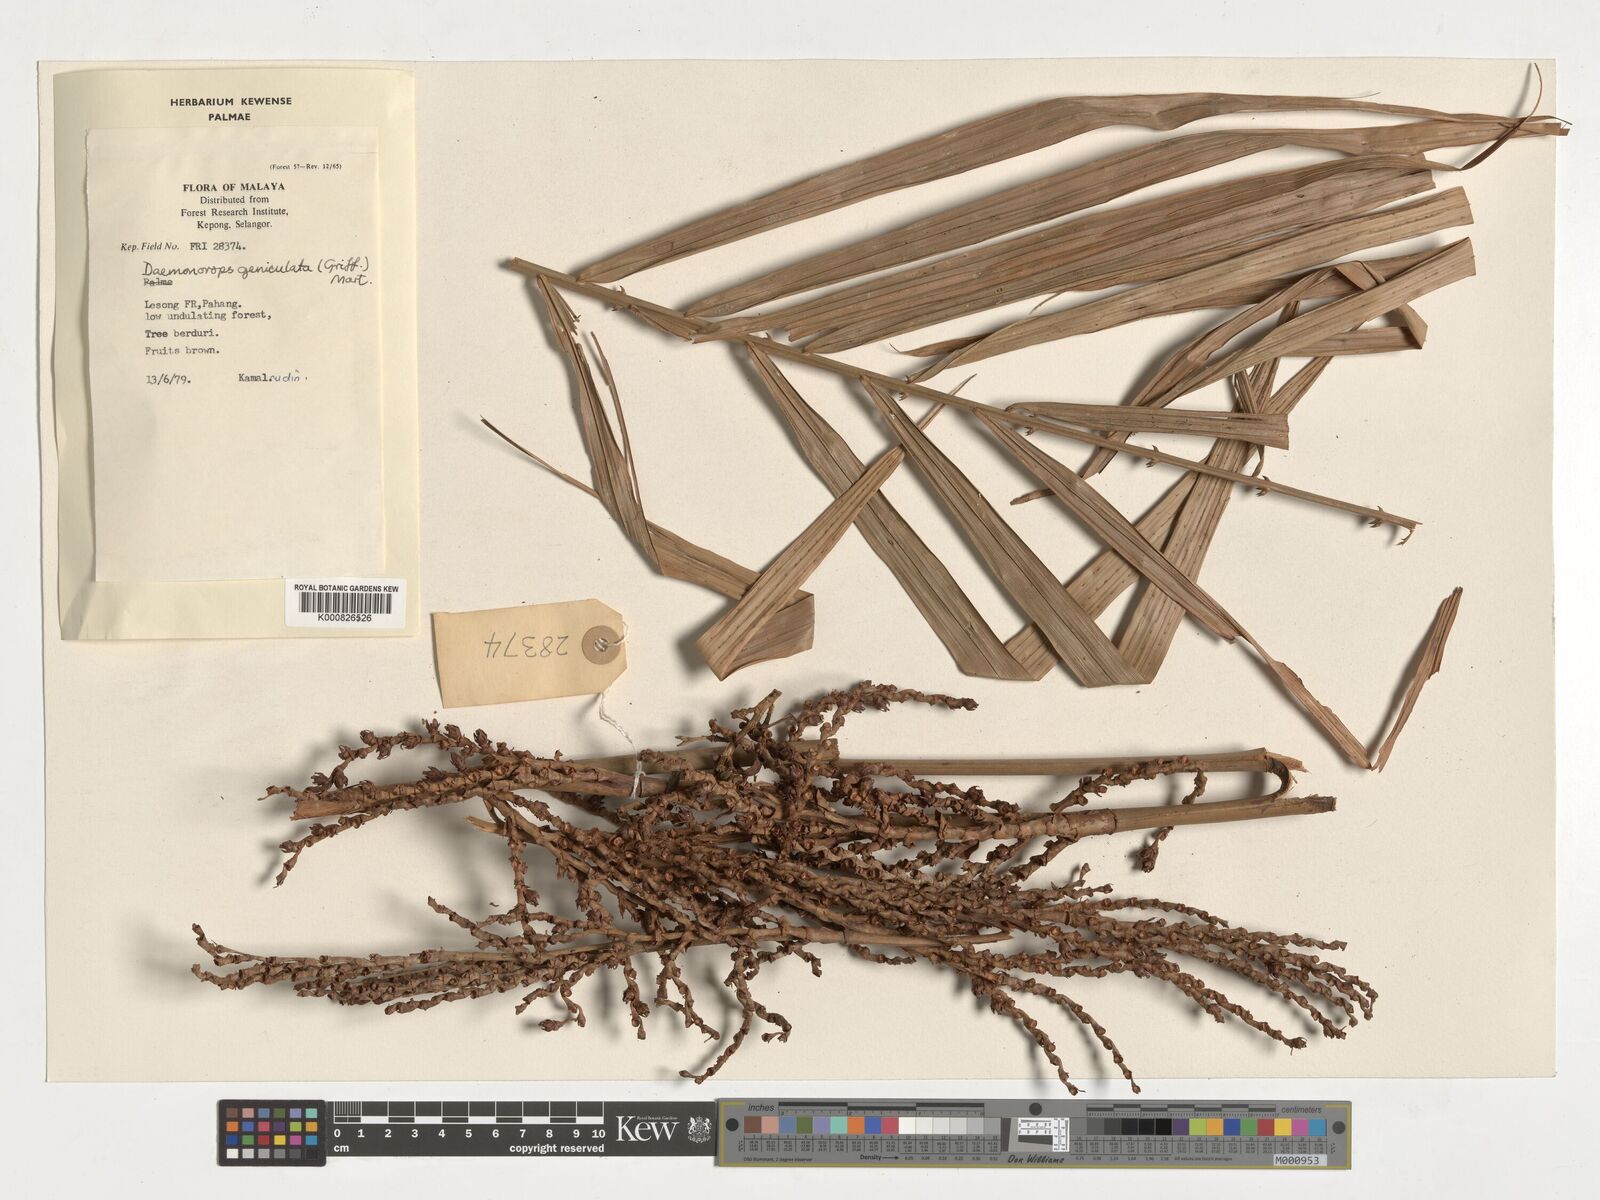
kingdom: Plantae
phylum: Tracheophyta
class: Liliopsida
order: Arecales
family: Arecaceae
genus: Calamus
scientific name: Calamus geniculatus
